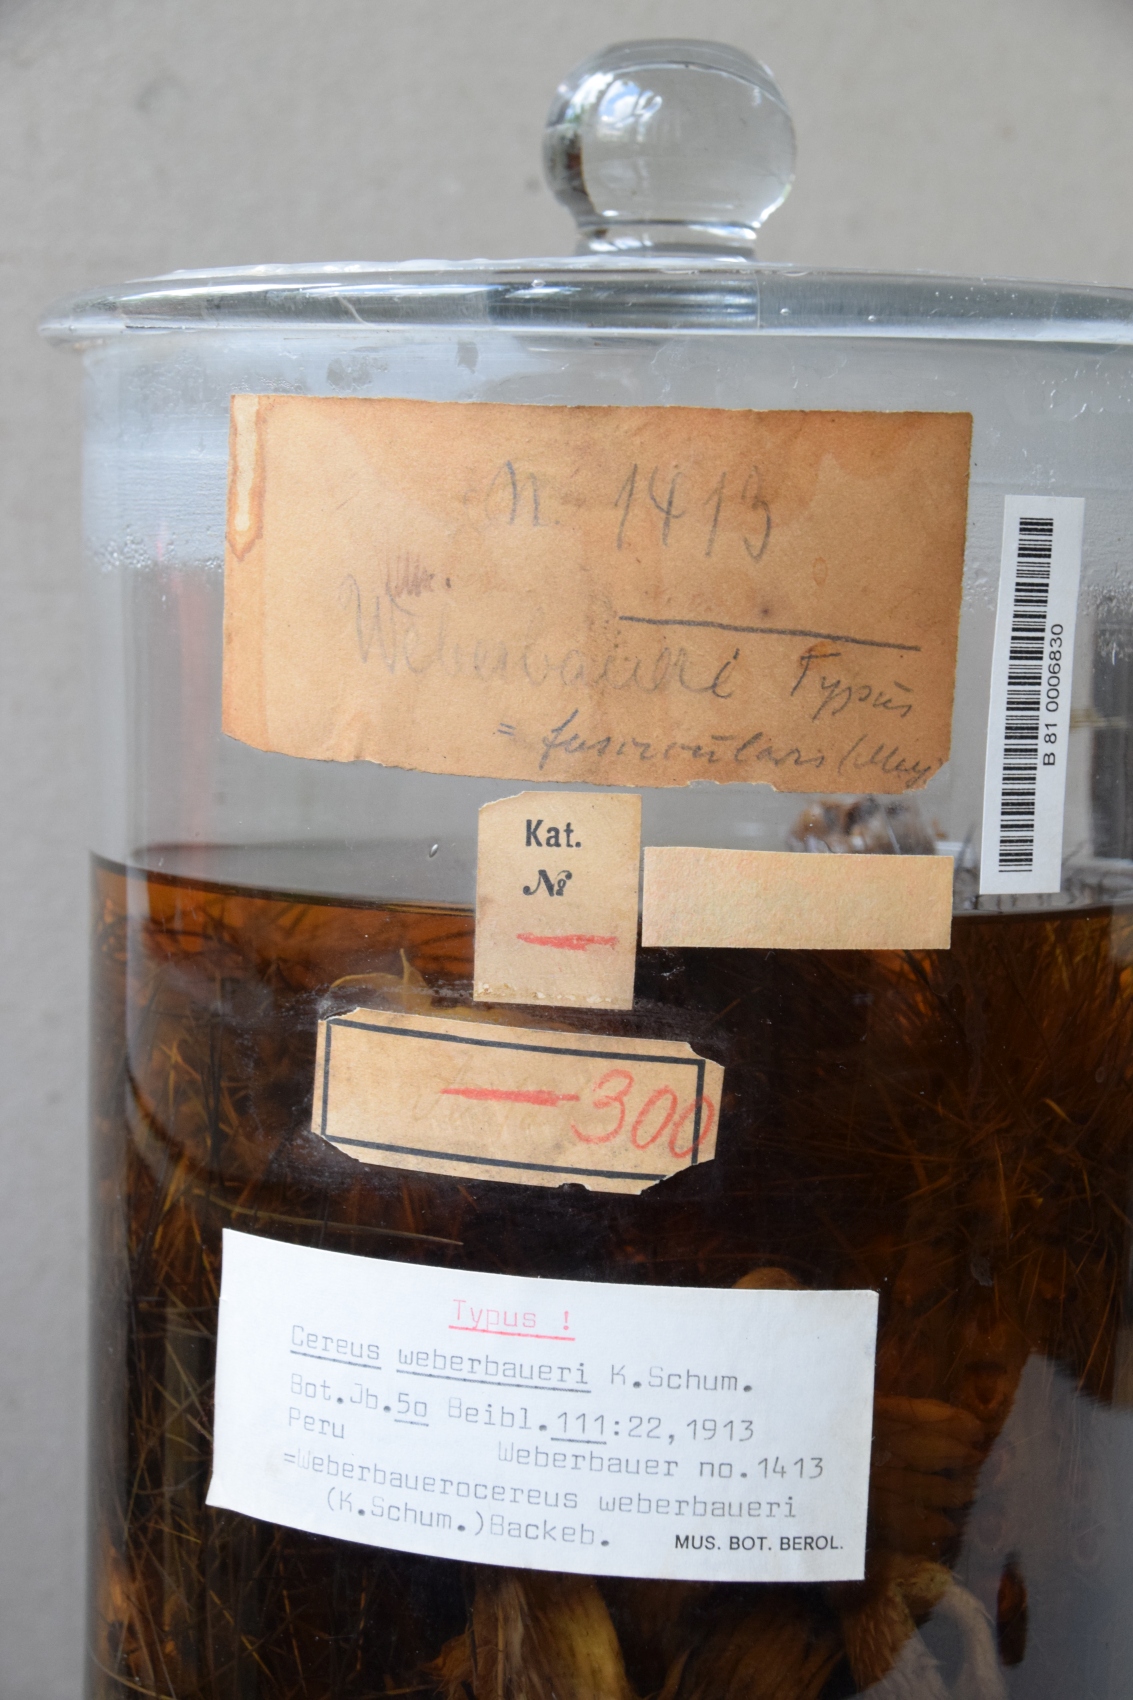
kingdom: Plantae
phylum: Tracheophyta
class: Magnoliopsida
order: Caryophyllales
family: Cactaceae
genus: Weberbauerocereus
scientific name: Weberbauerocereus weberbaueri
